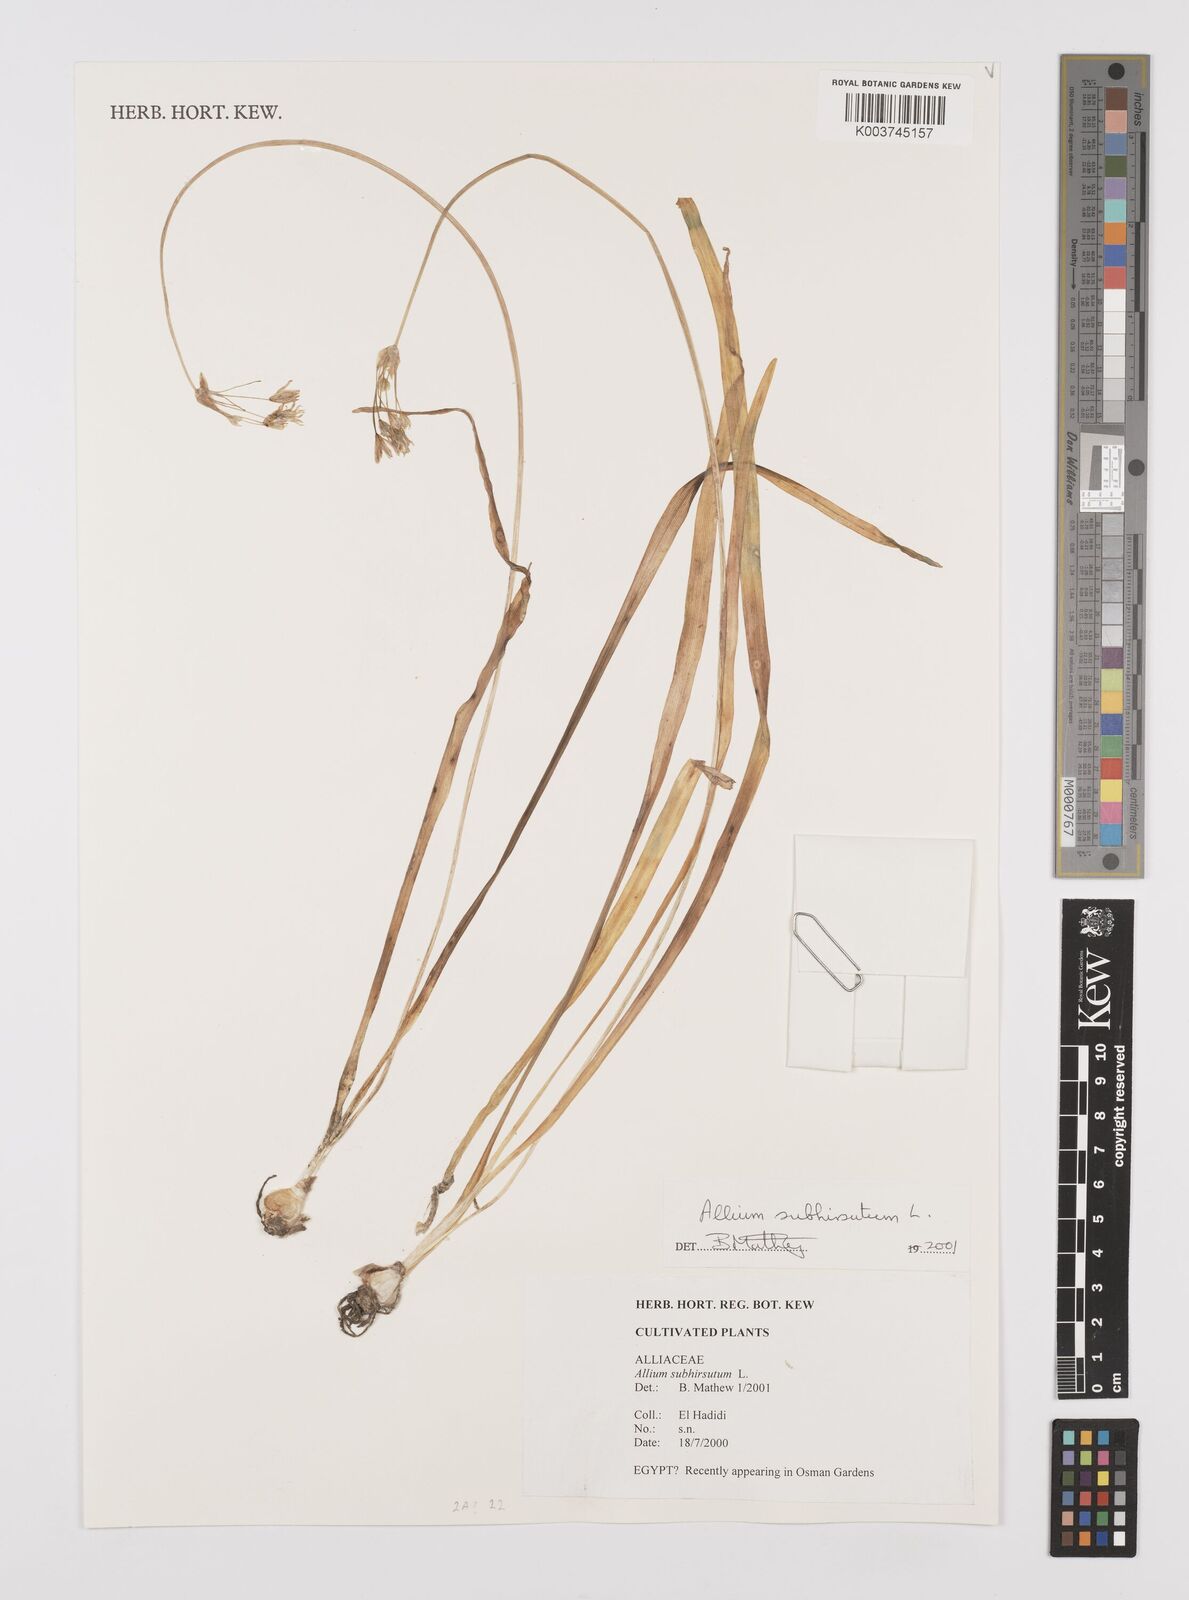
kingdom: Plantae
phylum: Tracheophyta
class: Liliopsida
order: Asparagales
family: Amaryllidaceae
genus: Allium
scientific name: Allium subhirsutum
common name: Hairy garlic
